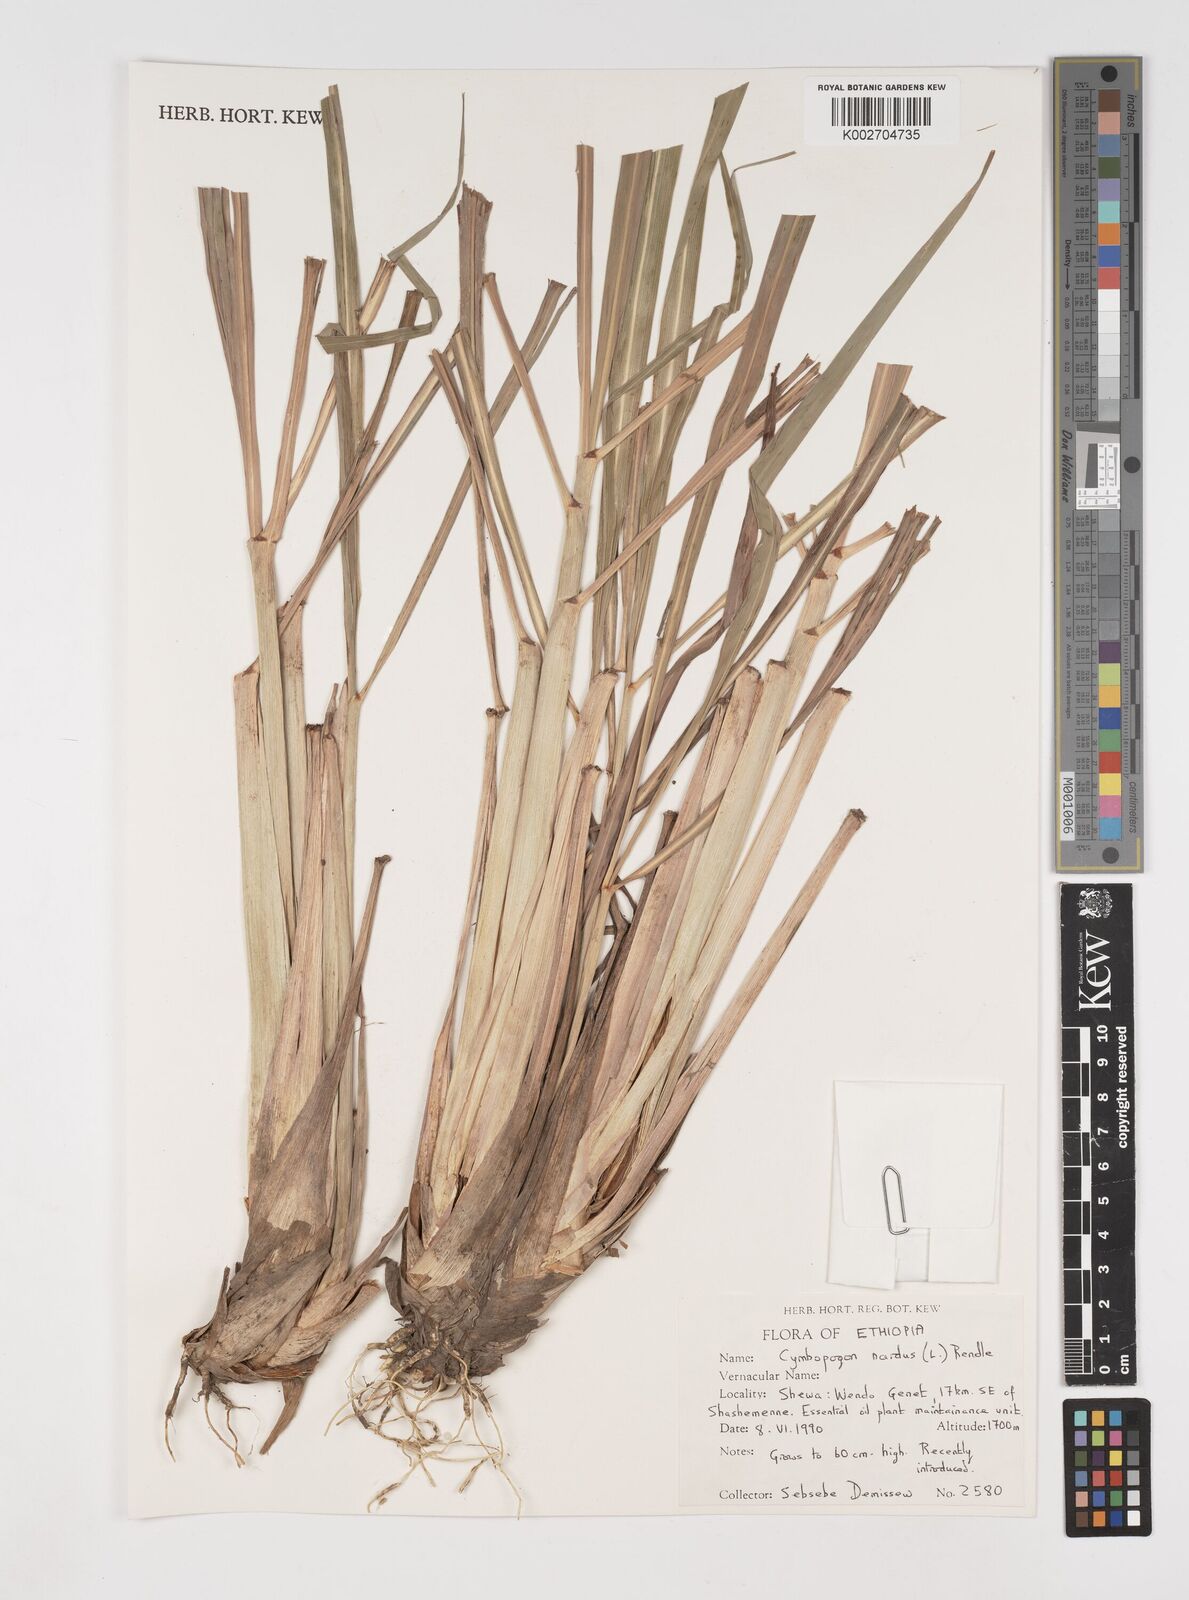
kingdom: Plantae
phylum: Tracheophyta
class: Liliopsida
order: Poales
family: Poaceae
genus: Cymbopogon
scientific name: Cymbopogon nardus
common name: Giant turpentine grass
